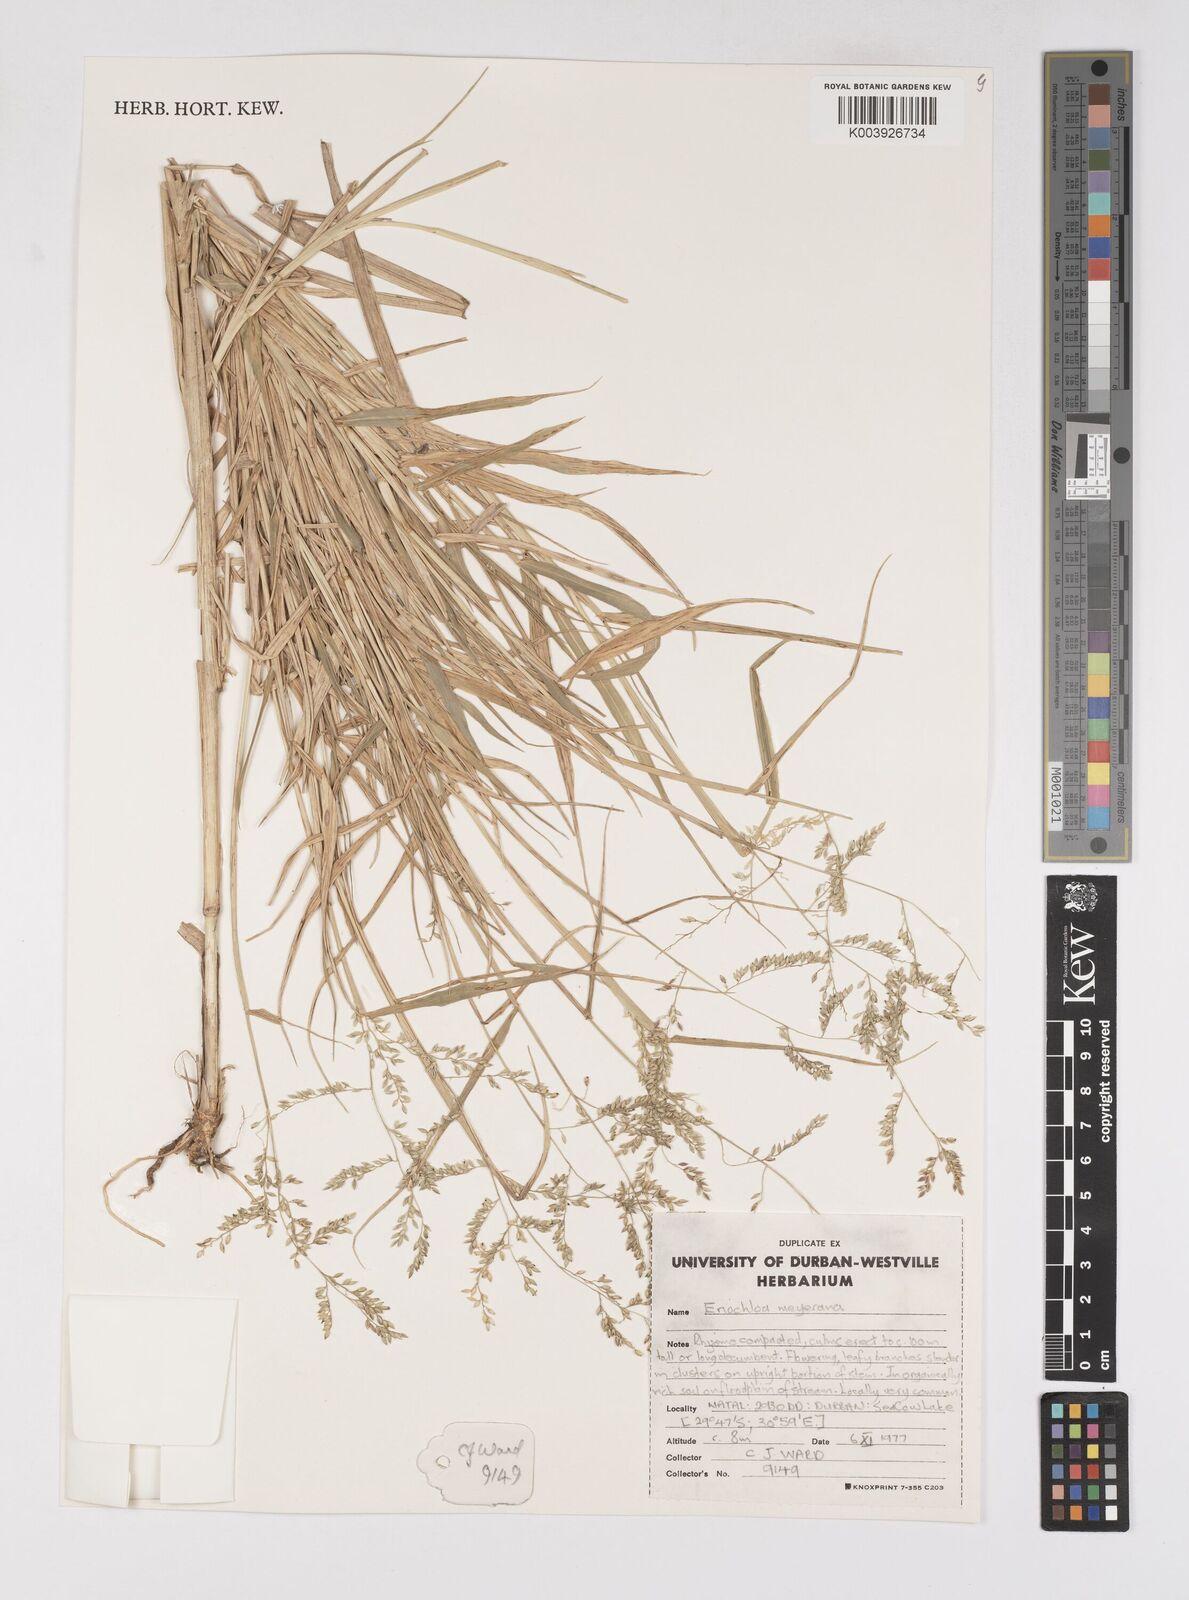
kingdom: Plantae
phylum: Tracheophyta
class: Liliopsida
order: Poales
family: Poaceae
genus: Eriochloa
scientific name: Eriochloa meyeriana
